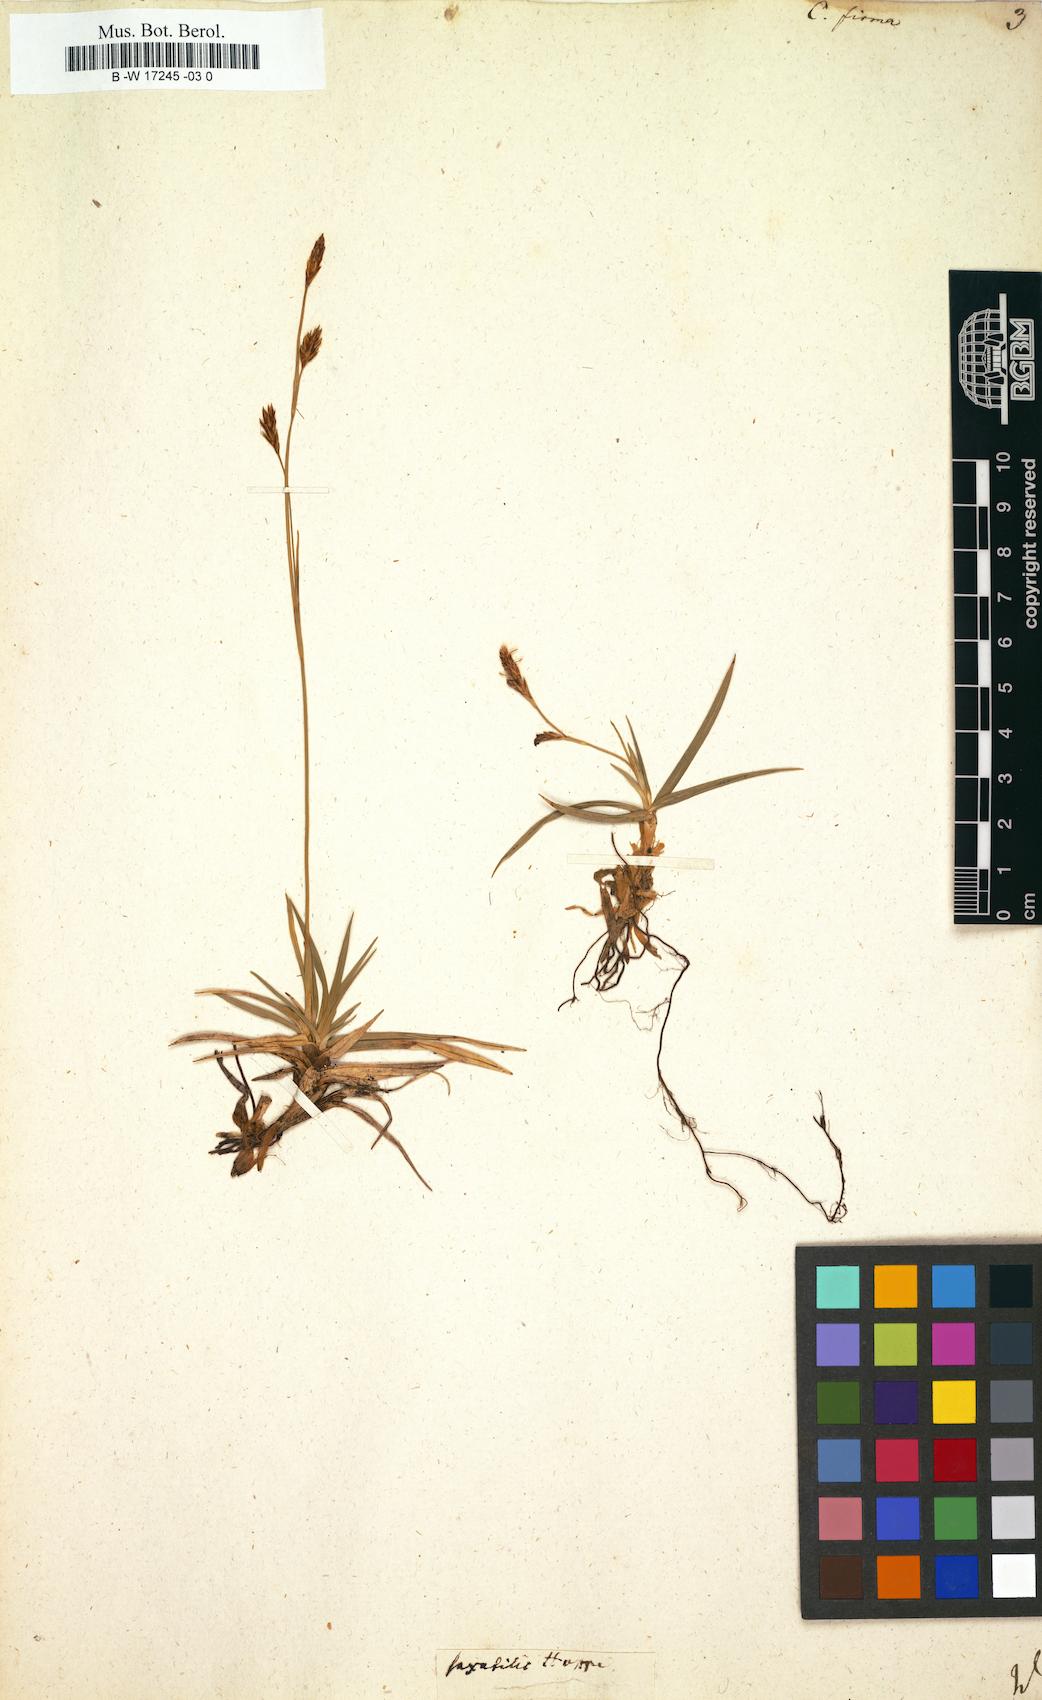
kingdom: Plantae
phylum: Tracheophyta
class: Liliopsida
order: Poales
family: Cyperaceae
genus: Carex
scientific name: Carex firma
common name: Dwarf pillow sedge
